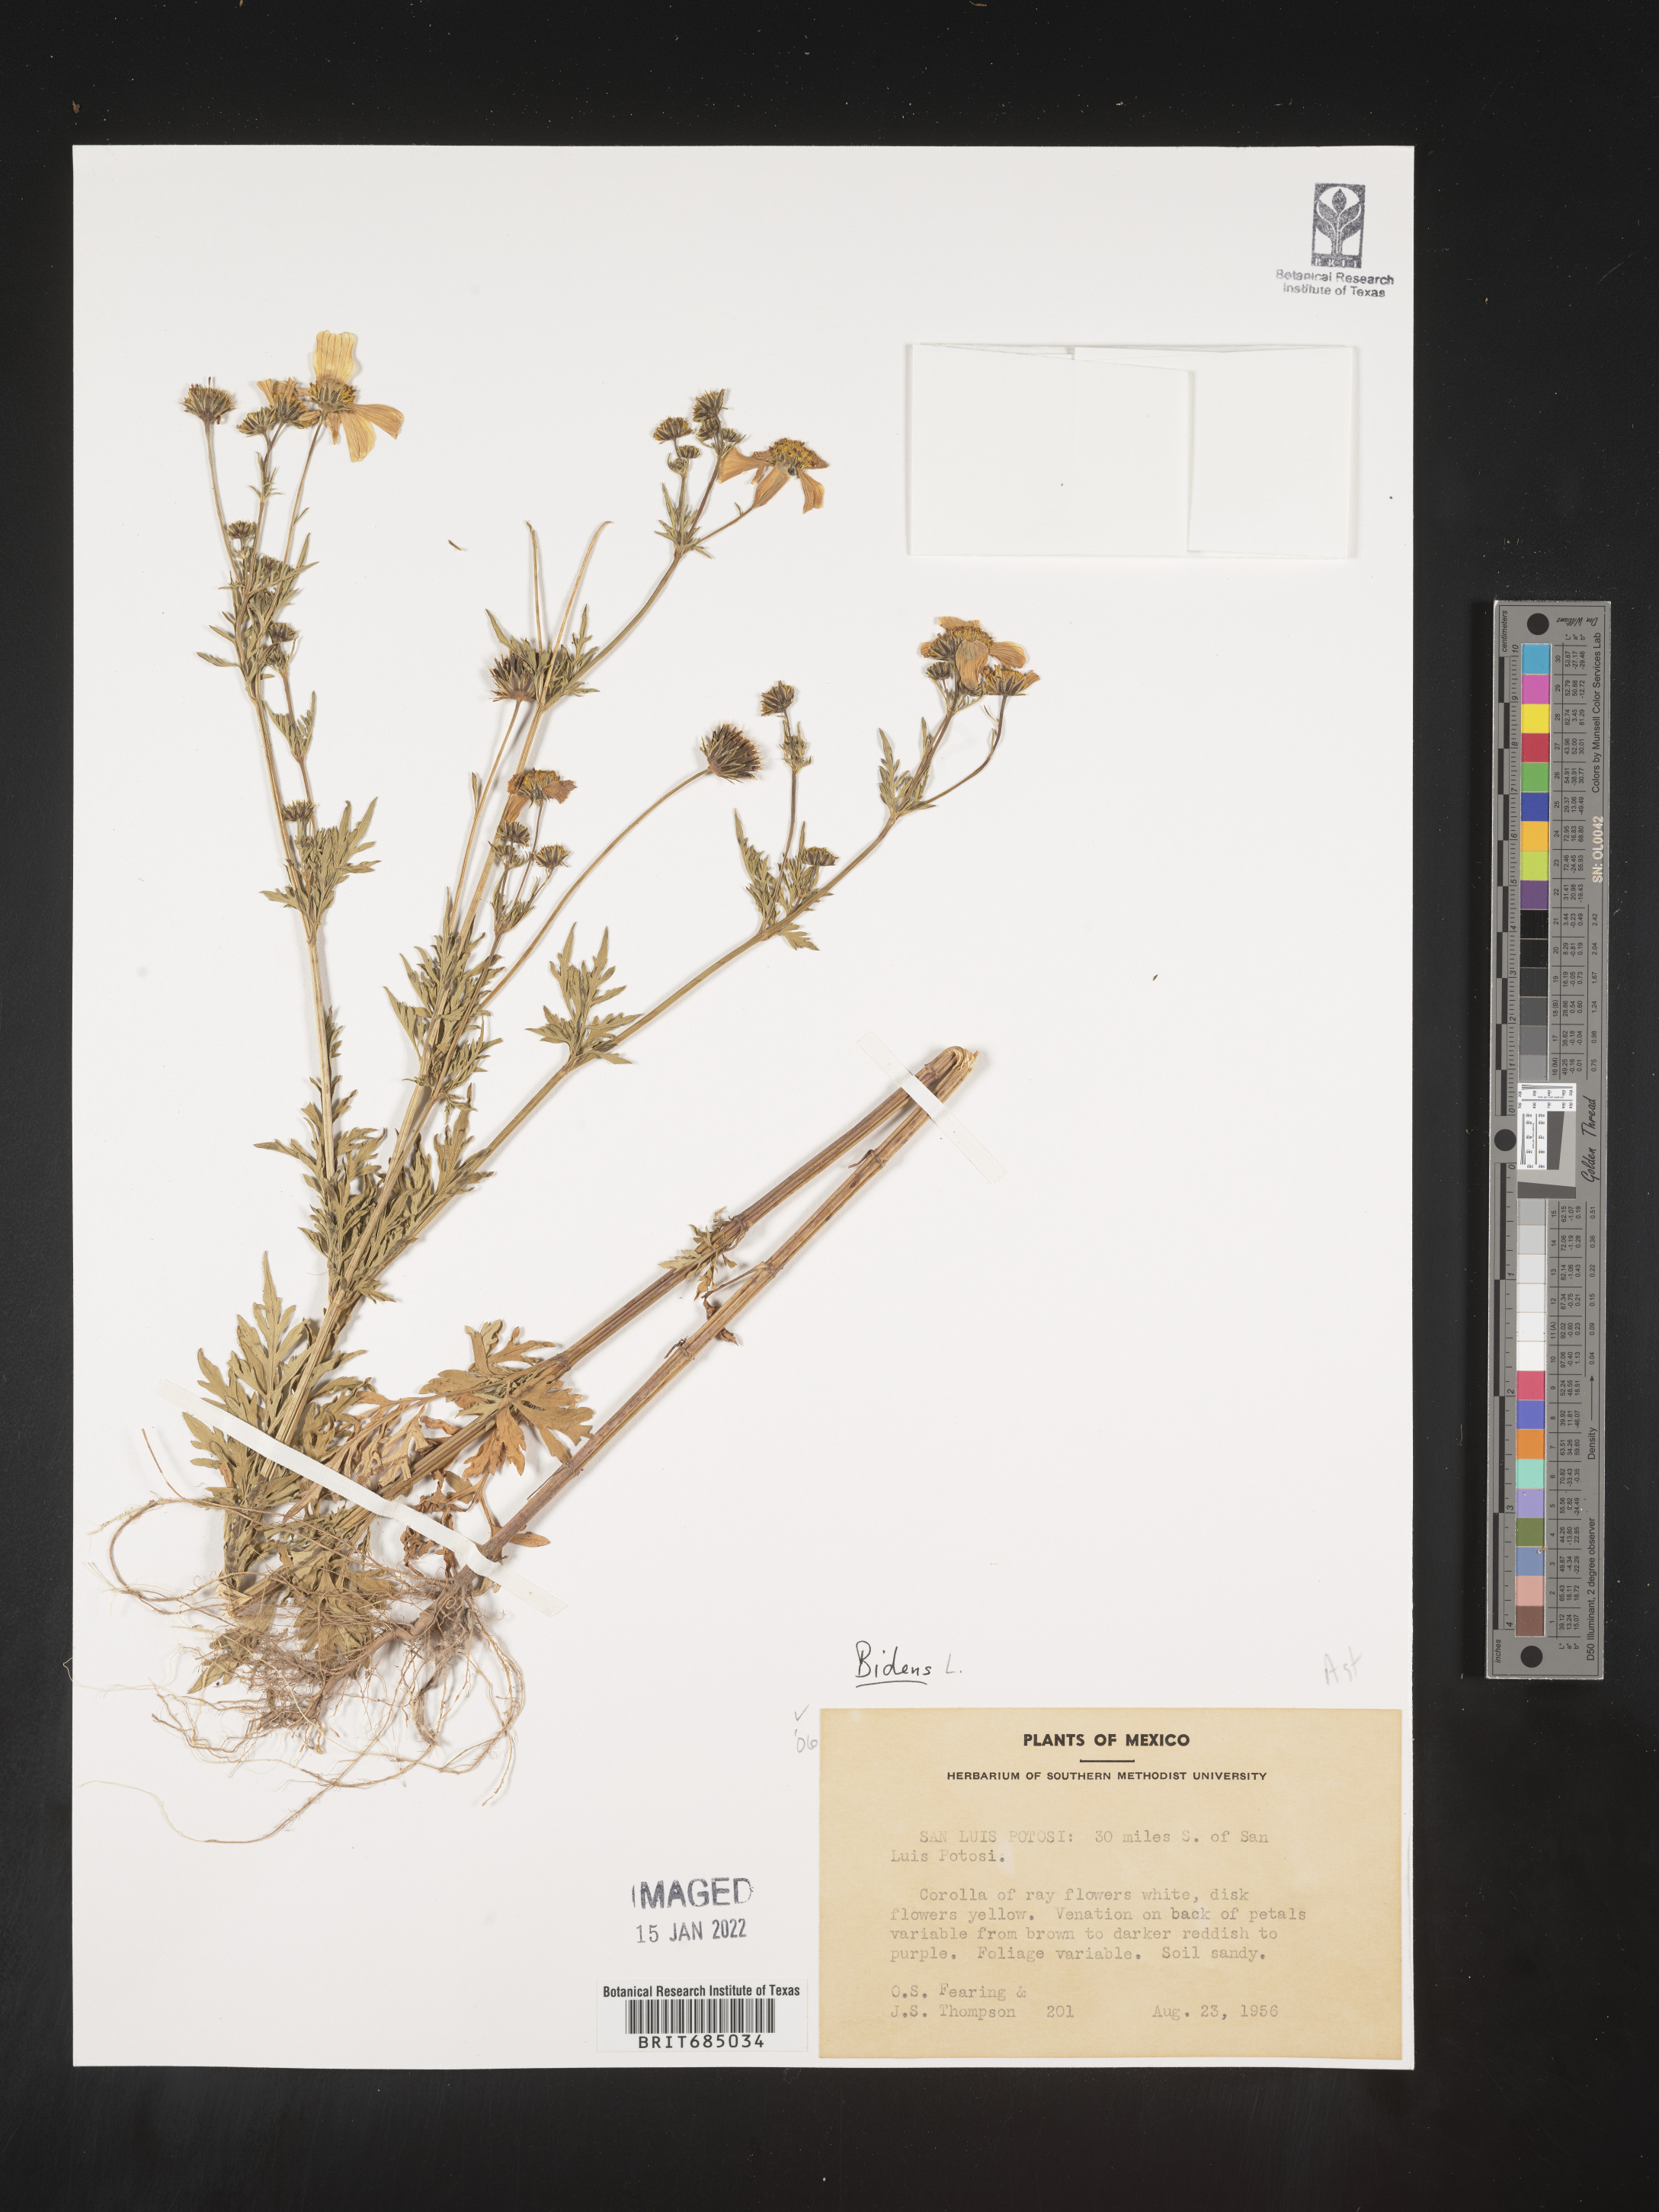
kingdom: Plantae
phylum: Tracheophyta
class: Magnoliopsida
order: Asterales
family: Asteraceae
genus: Bidens
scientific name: Bidens
